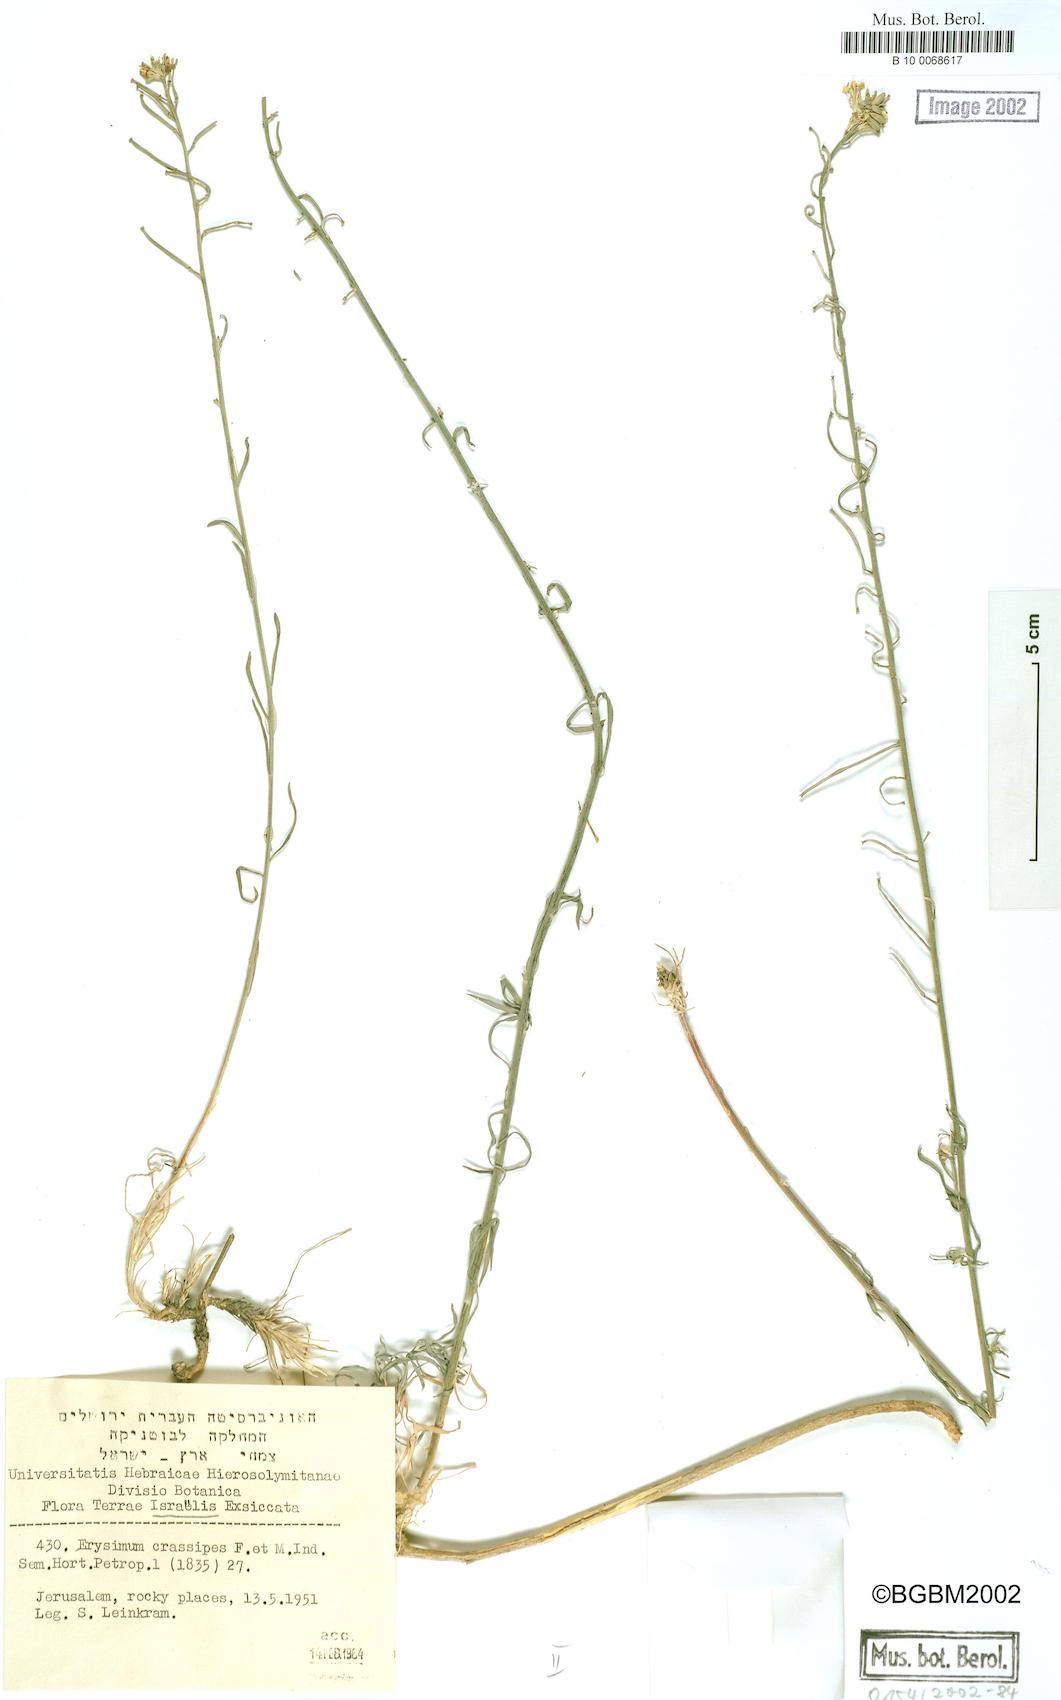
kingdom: Plantae
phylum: Tracheophyta
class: Magnoliopsida
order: Brassicales
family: Brassicaceae
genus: Erysimum
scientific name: Erysimum crassipes
